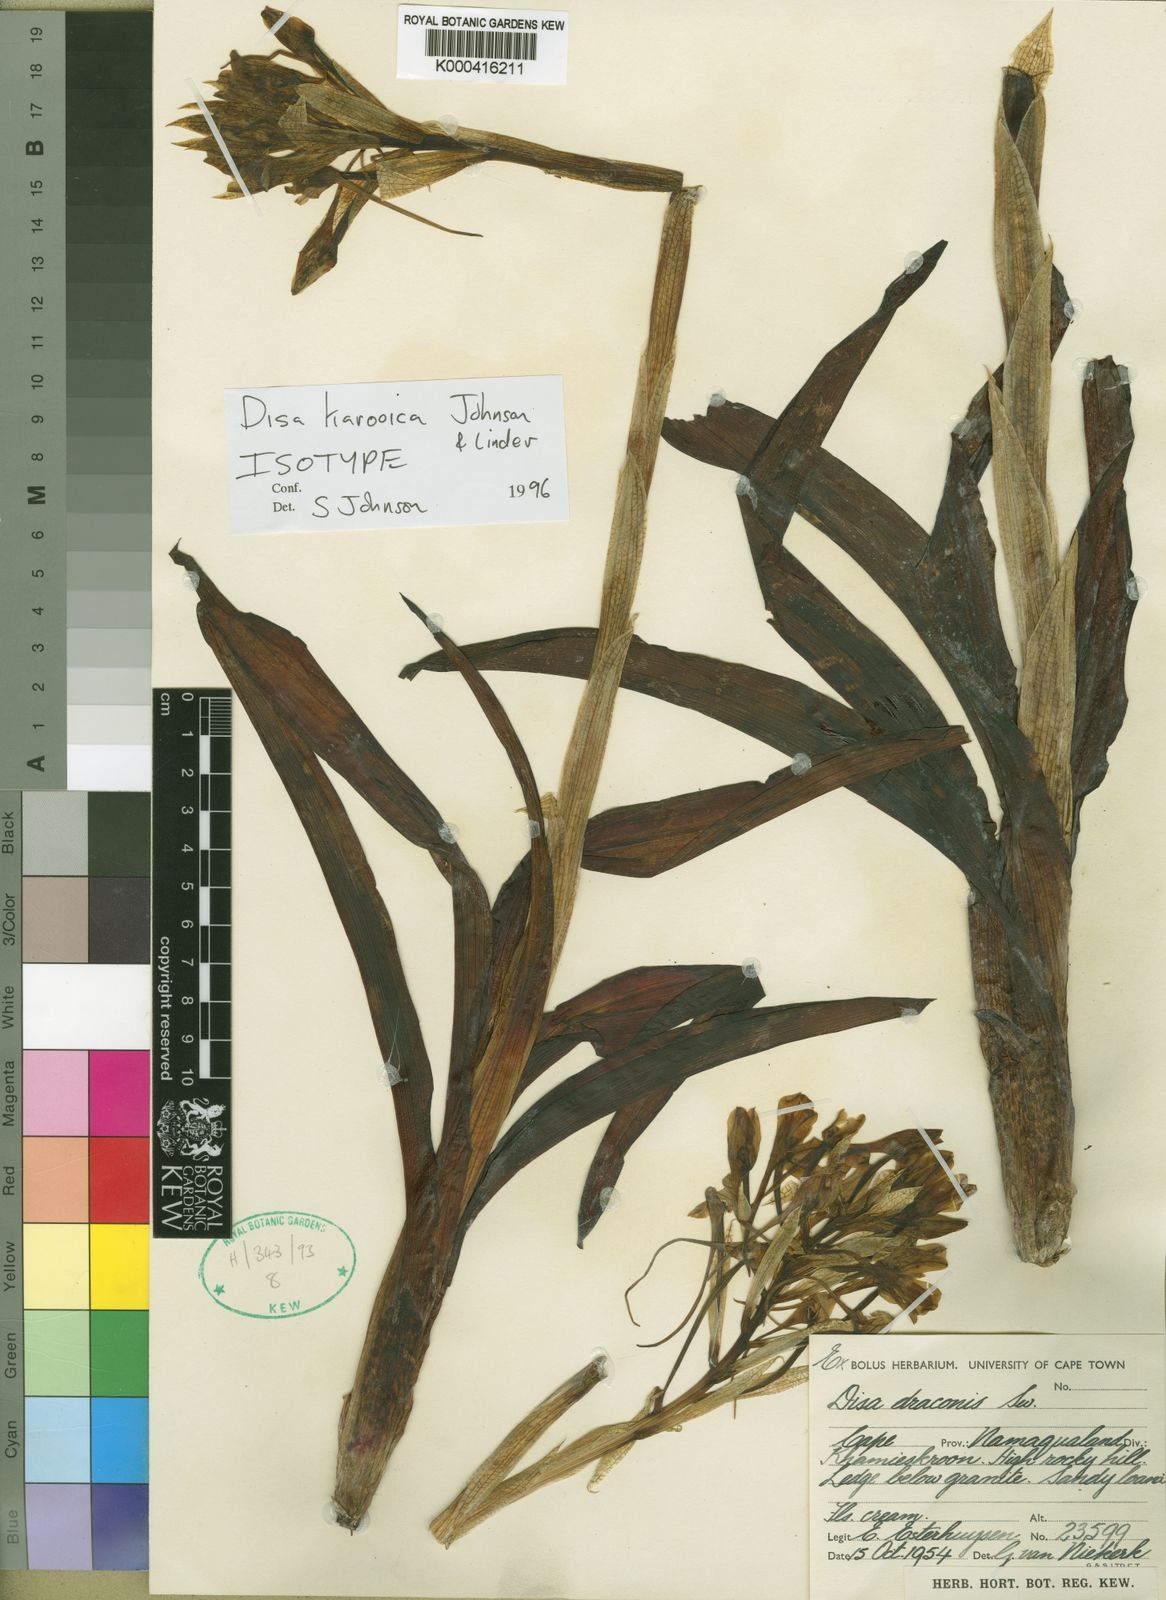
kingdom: Plantae
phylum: Tracheophyta
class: Liliopsida
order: Asparagales
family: Orchidaceae
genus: Satyrium
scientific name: Satyrium
